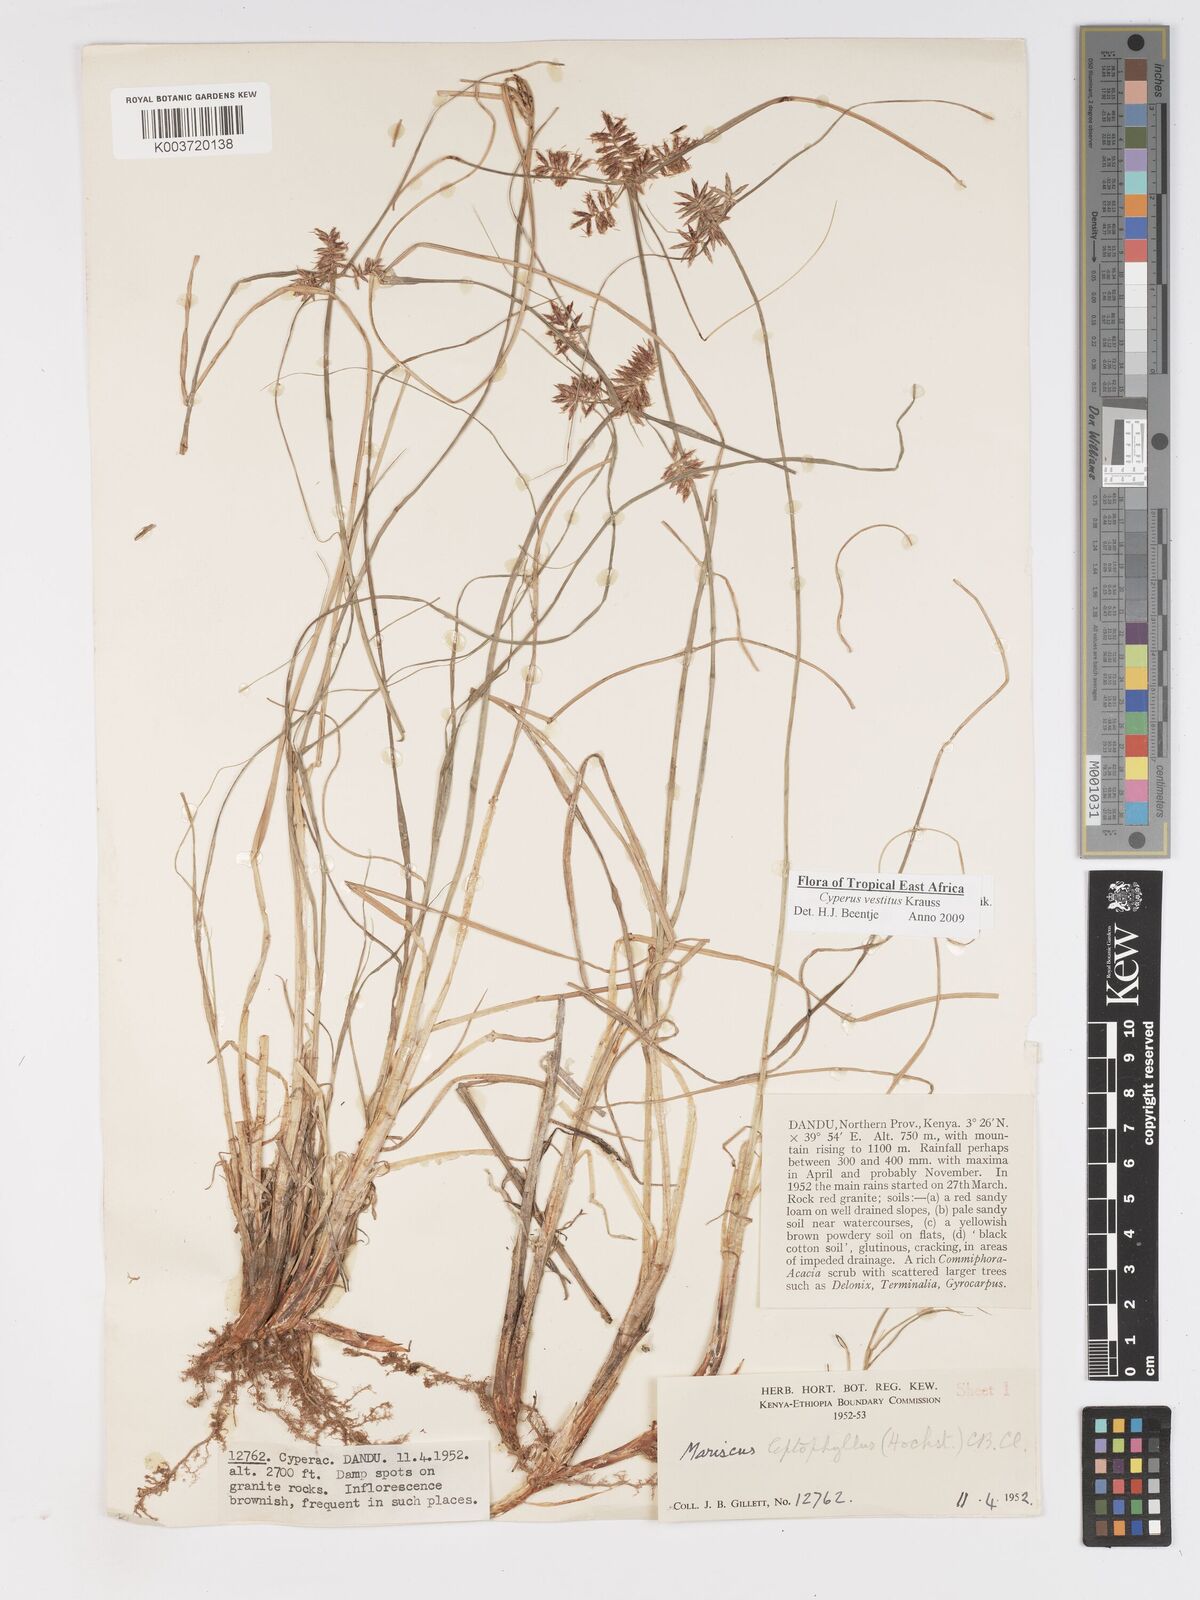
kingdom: Plantae
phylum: Tracheophyta
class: Liliopsida
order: Poales
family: Cyperaceae
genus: Cyperus
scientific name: Cyperus vestitus
